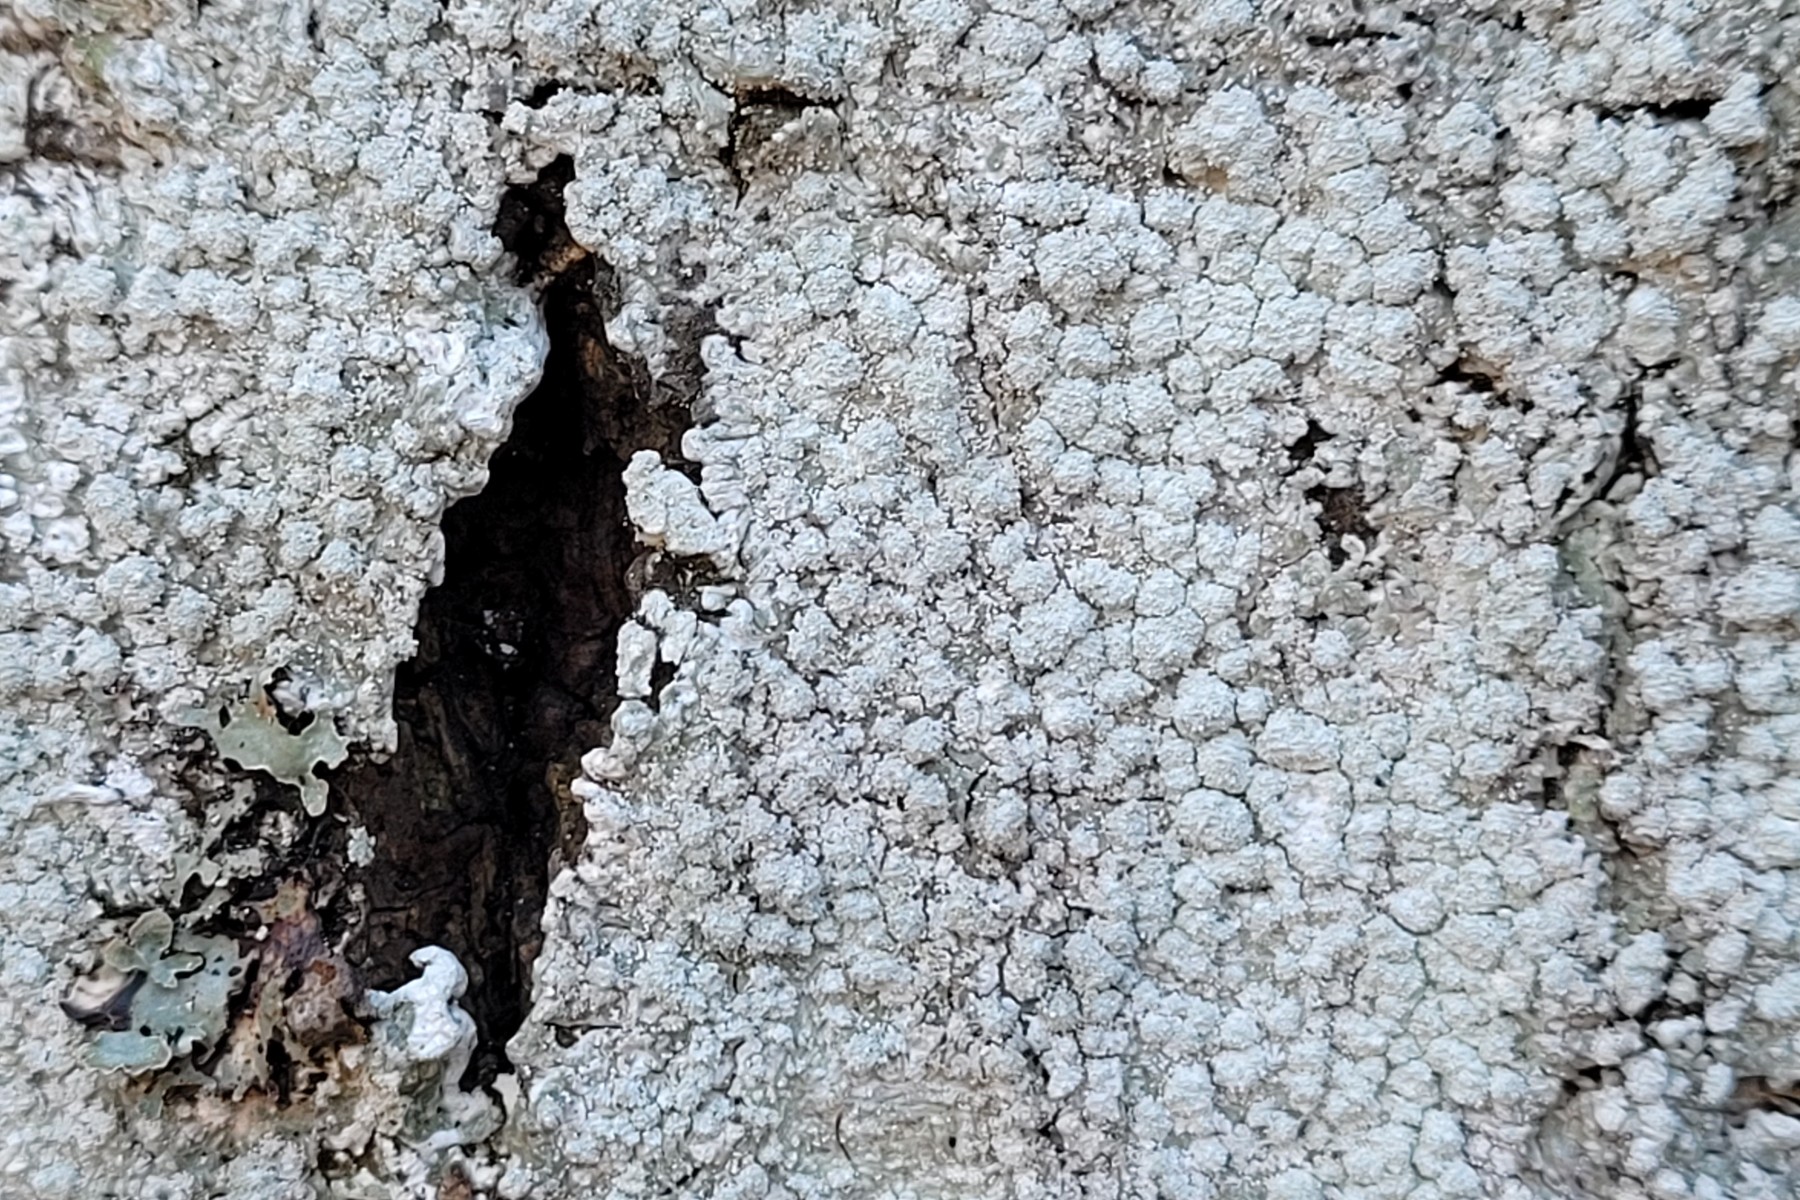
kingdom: Fungi
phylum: Ascomycota
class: Lecanoromycetes
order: Pertusariales
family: Pertusariaceae
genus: Lepra
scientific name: Lepra amara
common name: bitter prikvortelav
